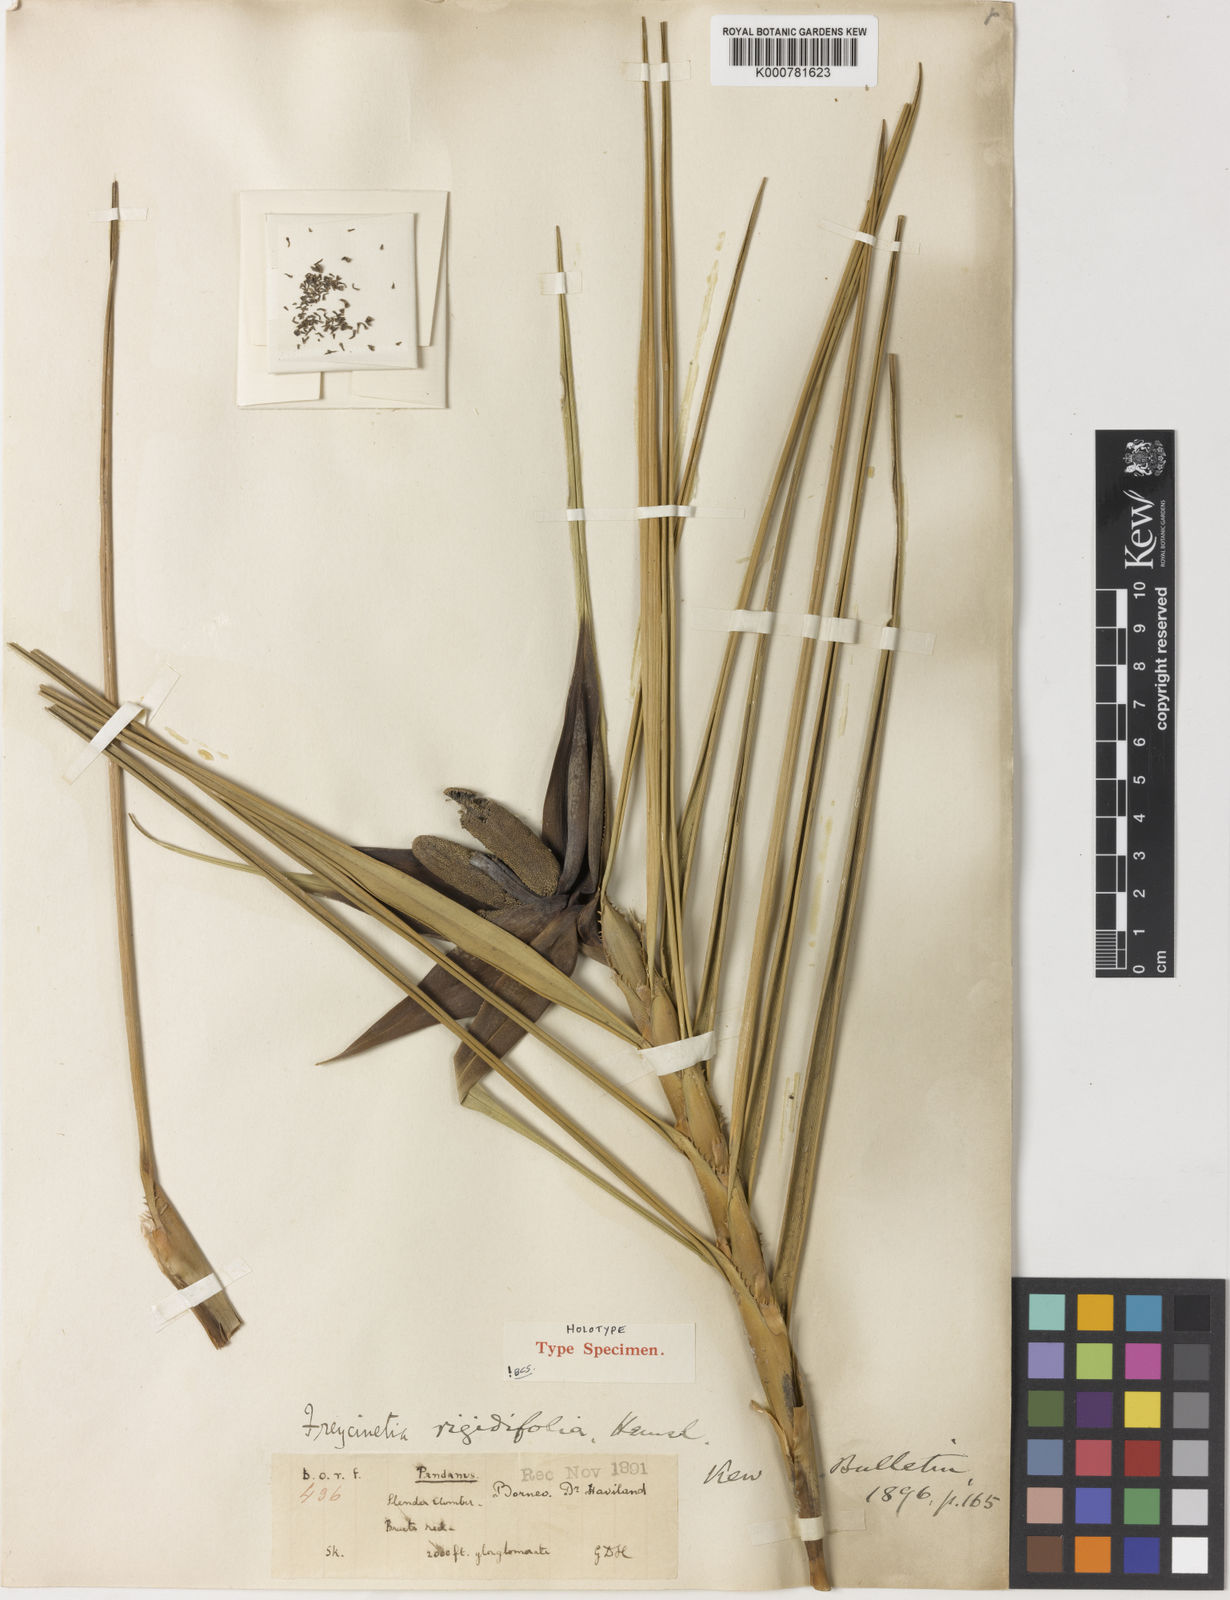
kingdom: Plantae
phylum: Tracheophyta
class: Liliopsida
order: Pandanales
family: Pandanaceae
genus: Freycinetia
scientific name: Freycinetia rigidifolia
